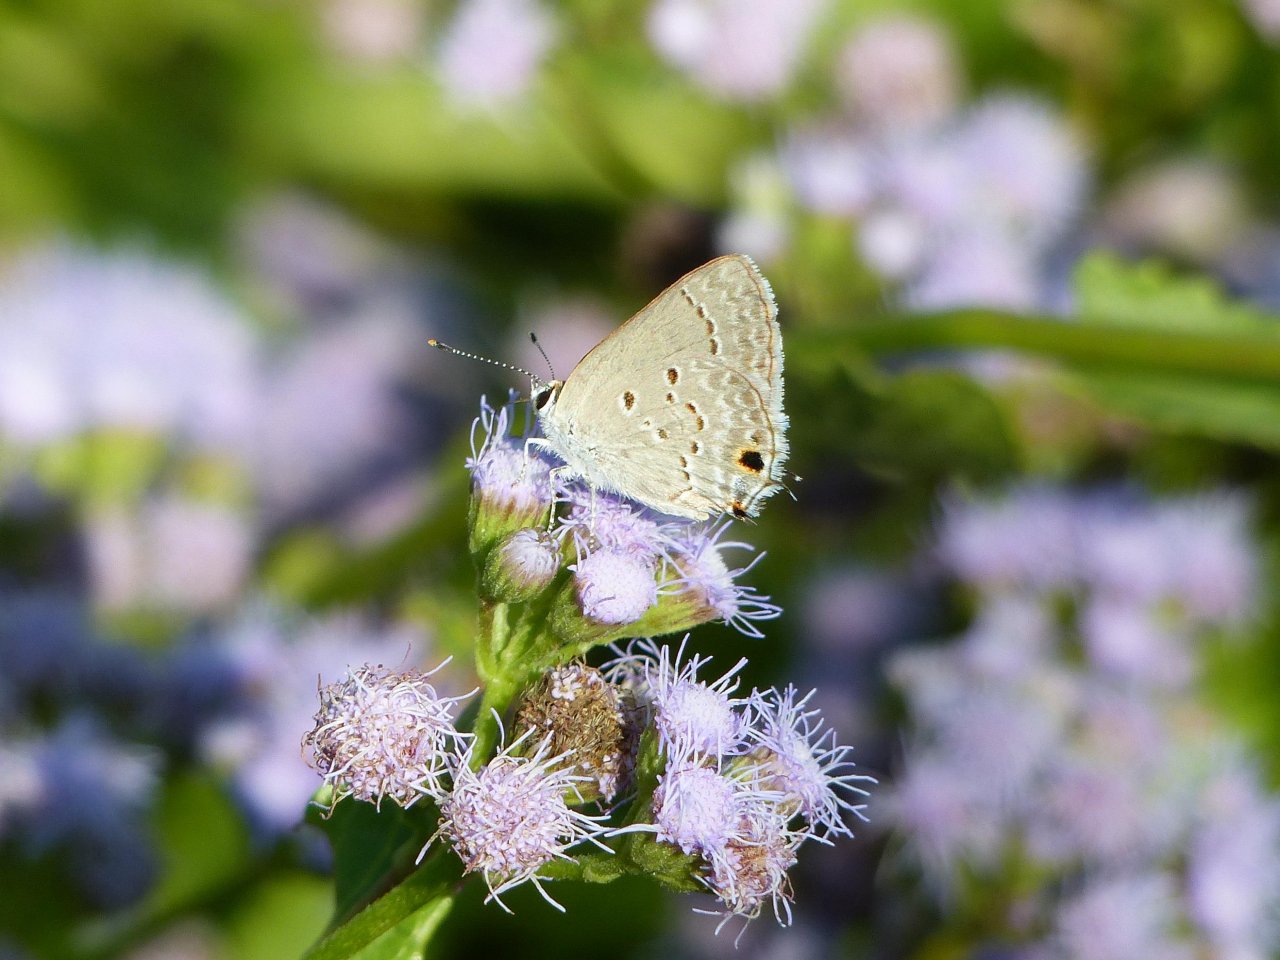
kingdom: Animalia
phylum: Arthropoda
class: Insecta
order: Lepidoptera
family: Lycaenidae
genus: Callicista
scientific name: Callicista columella
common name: Mallow Scrub-Hairstreak
